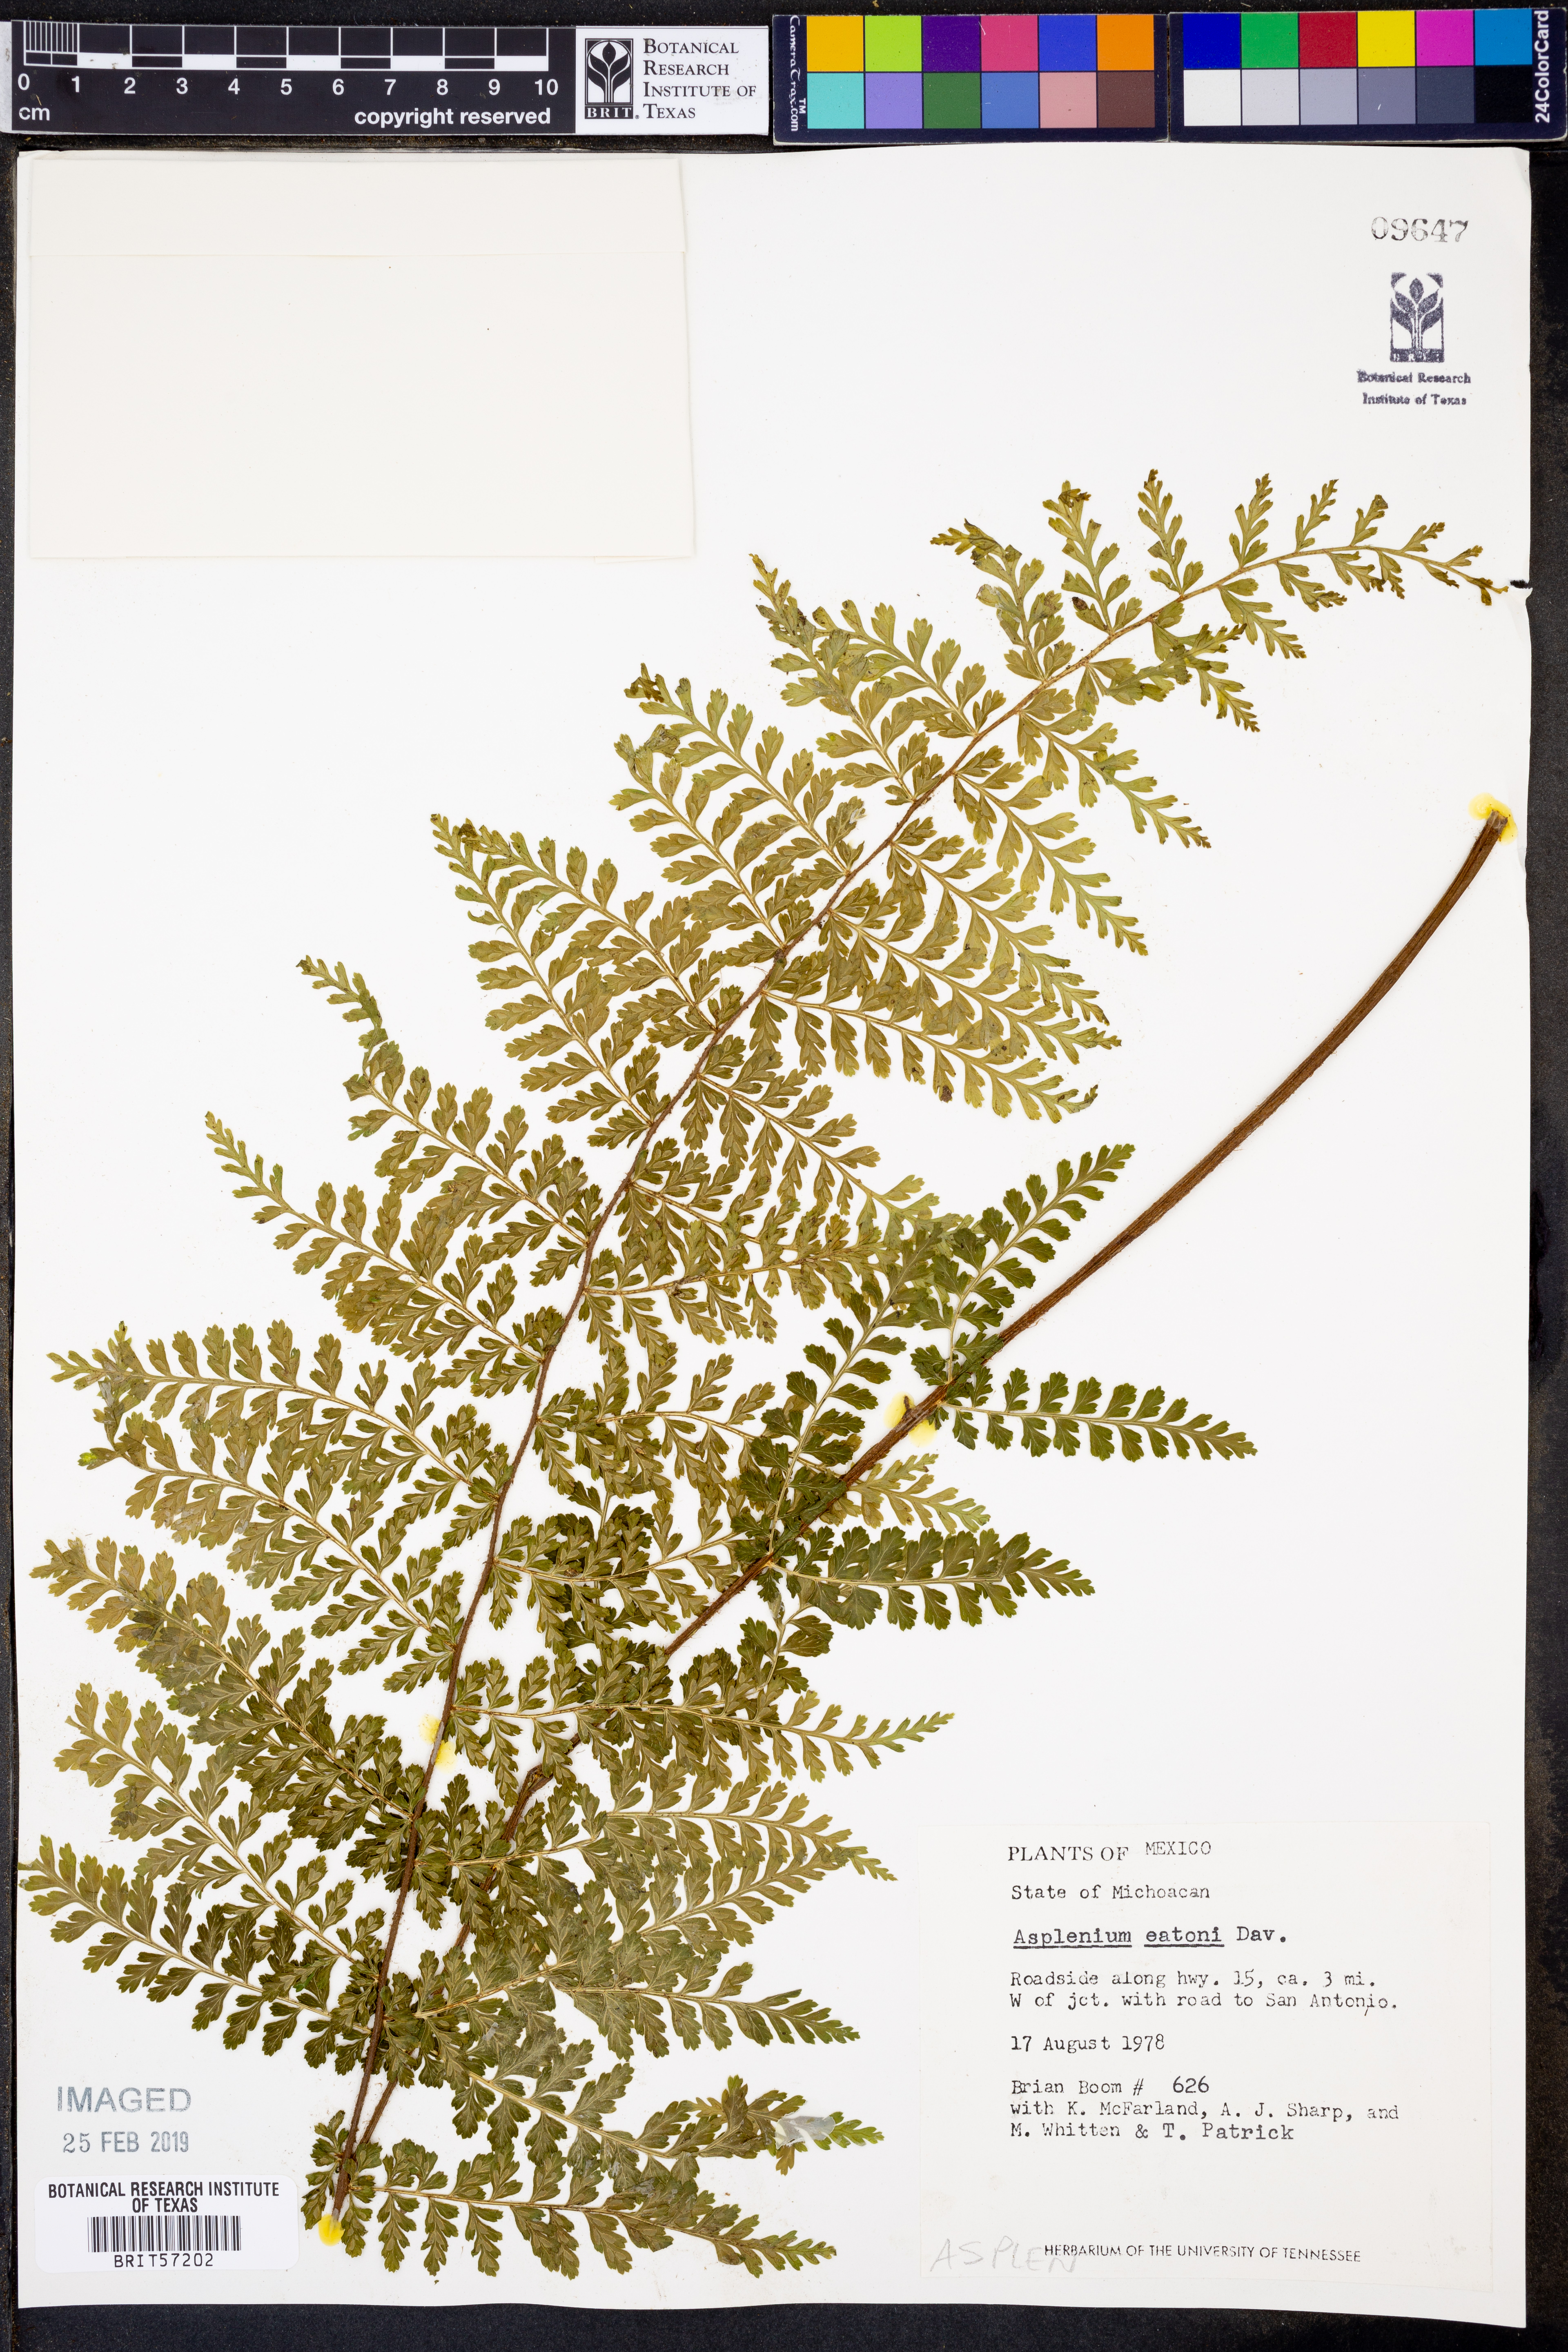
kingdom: Plantae
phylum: Tracheophyta
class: Polypodiopsida
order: Polypodiales
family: Aspleniaceae
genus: Asplenium
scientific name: Asplenium eatonii
